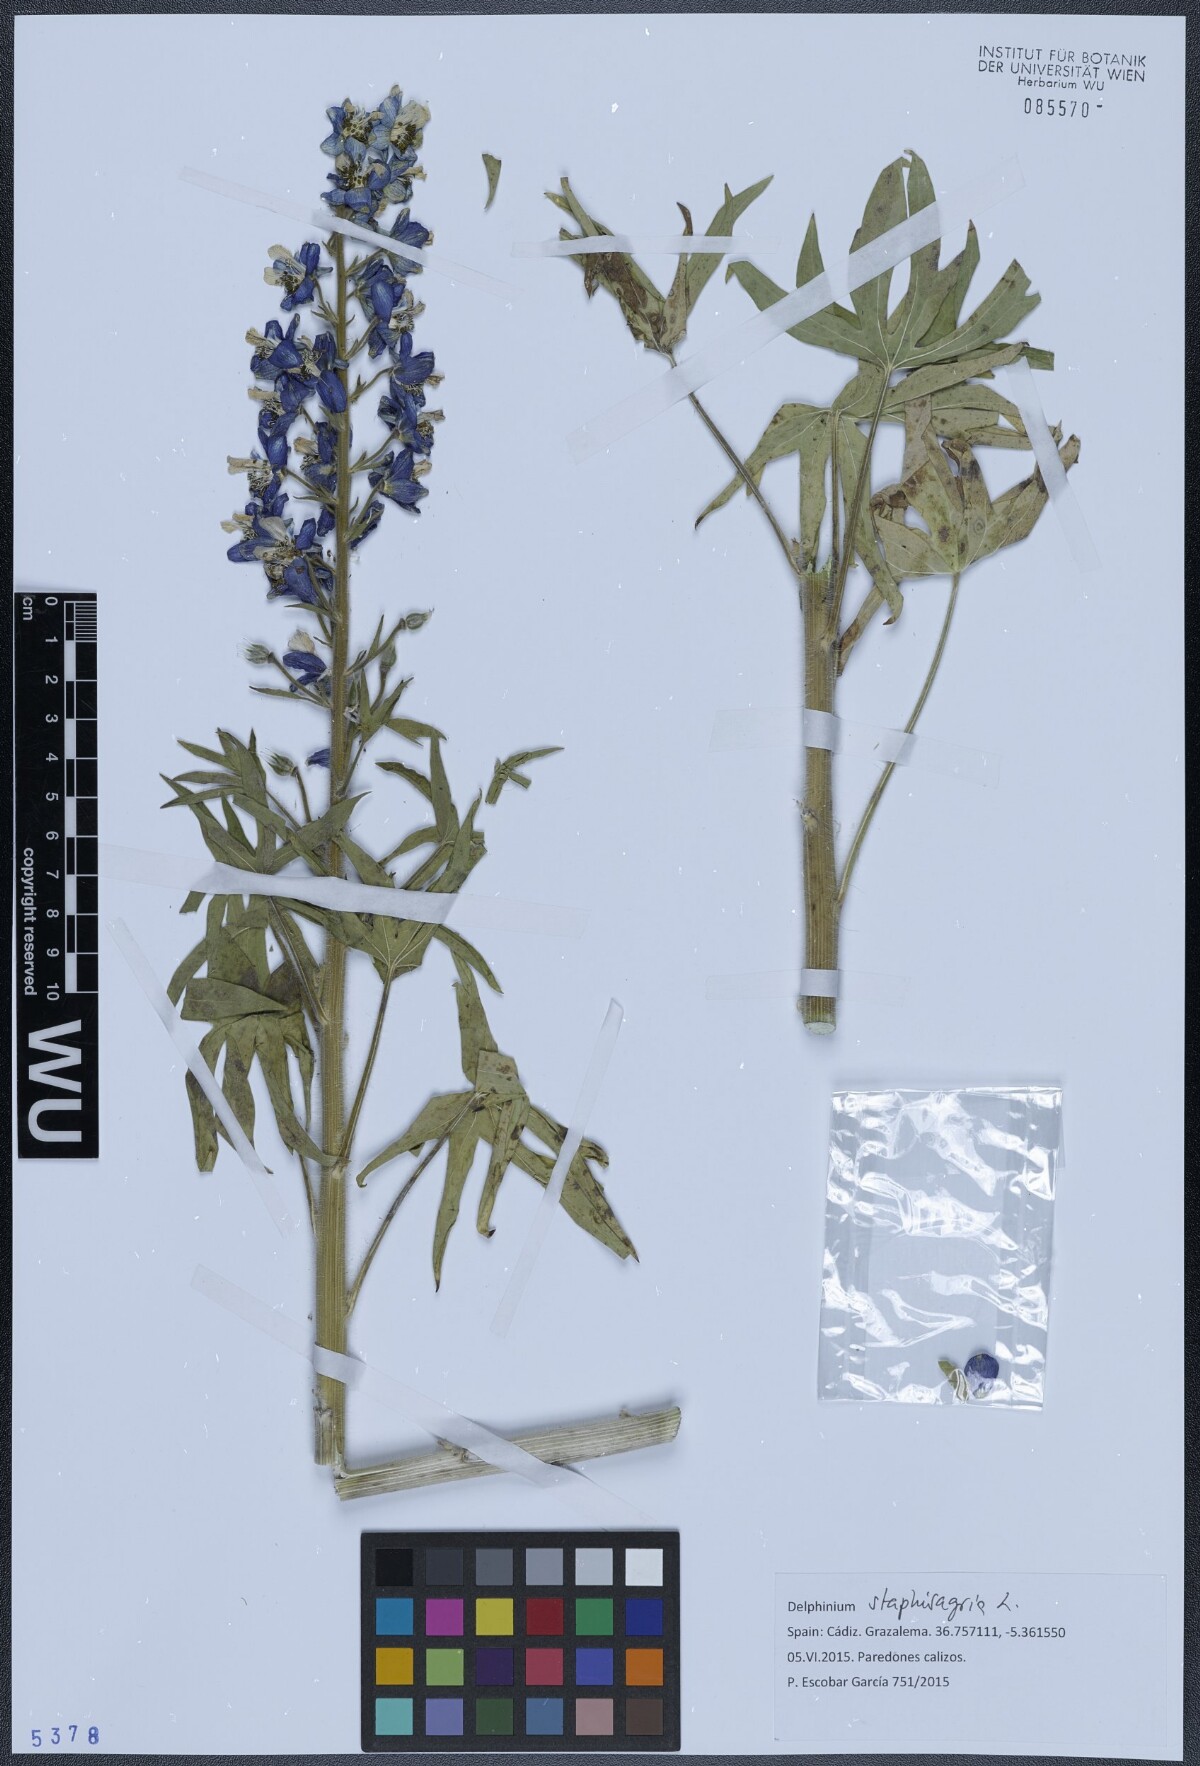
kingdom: Plantae
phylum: Tracheophyta
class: Magnoliopsida
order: Ranunculales
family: Ranunculaceae
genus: Staphisagria
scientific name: Staphisagria macrosperma
